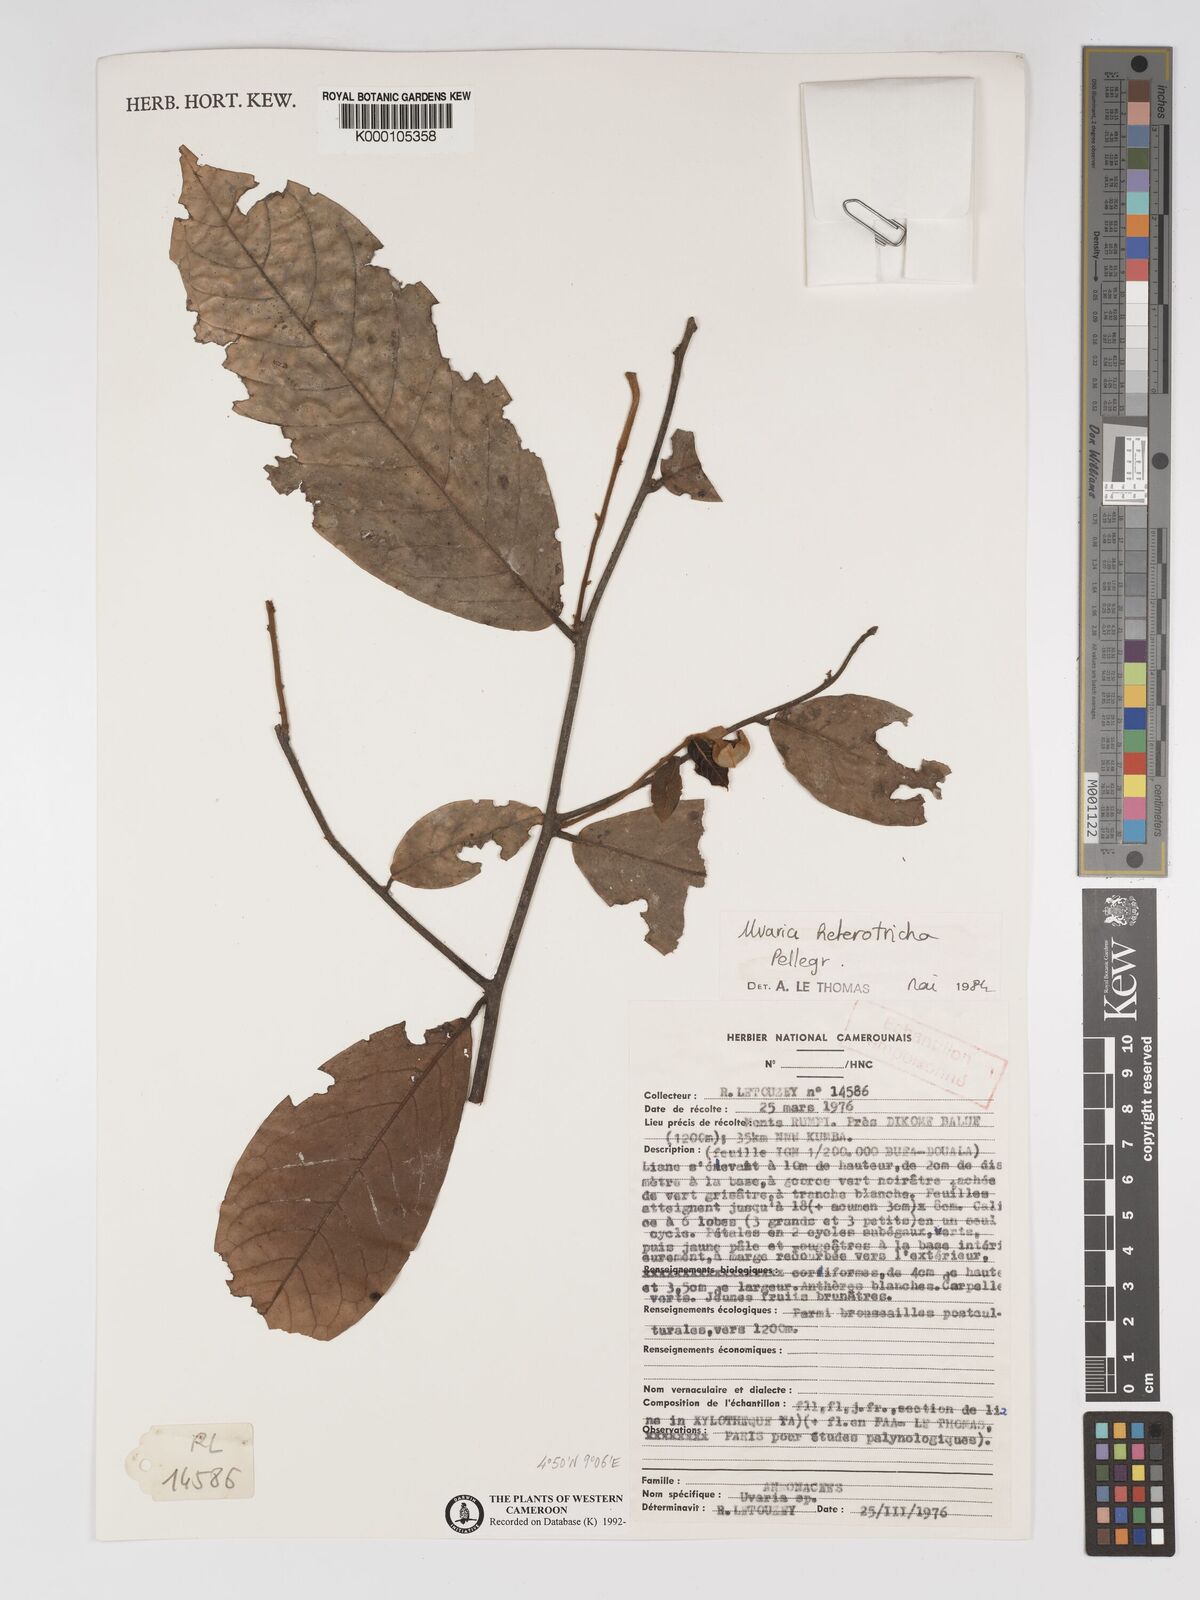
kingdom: Plantae
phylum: Tracheophyta
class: Magnoliopsida
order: Magnoliales
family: Annonaceae
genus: Uvaria
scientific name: Uvaria heterotricha
